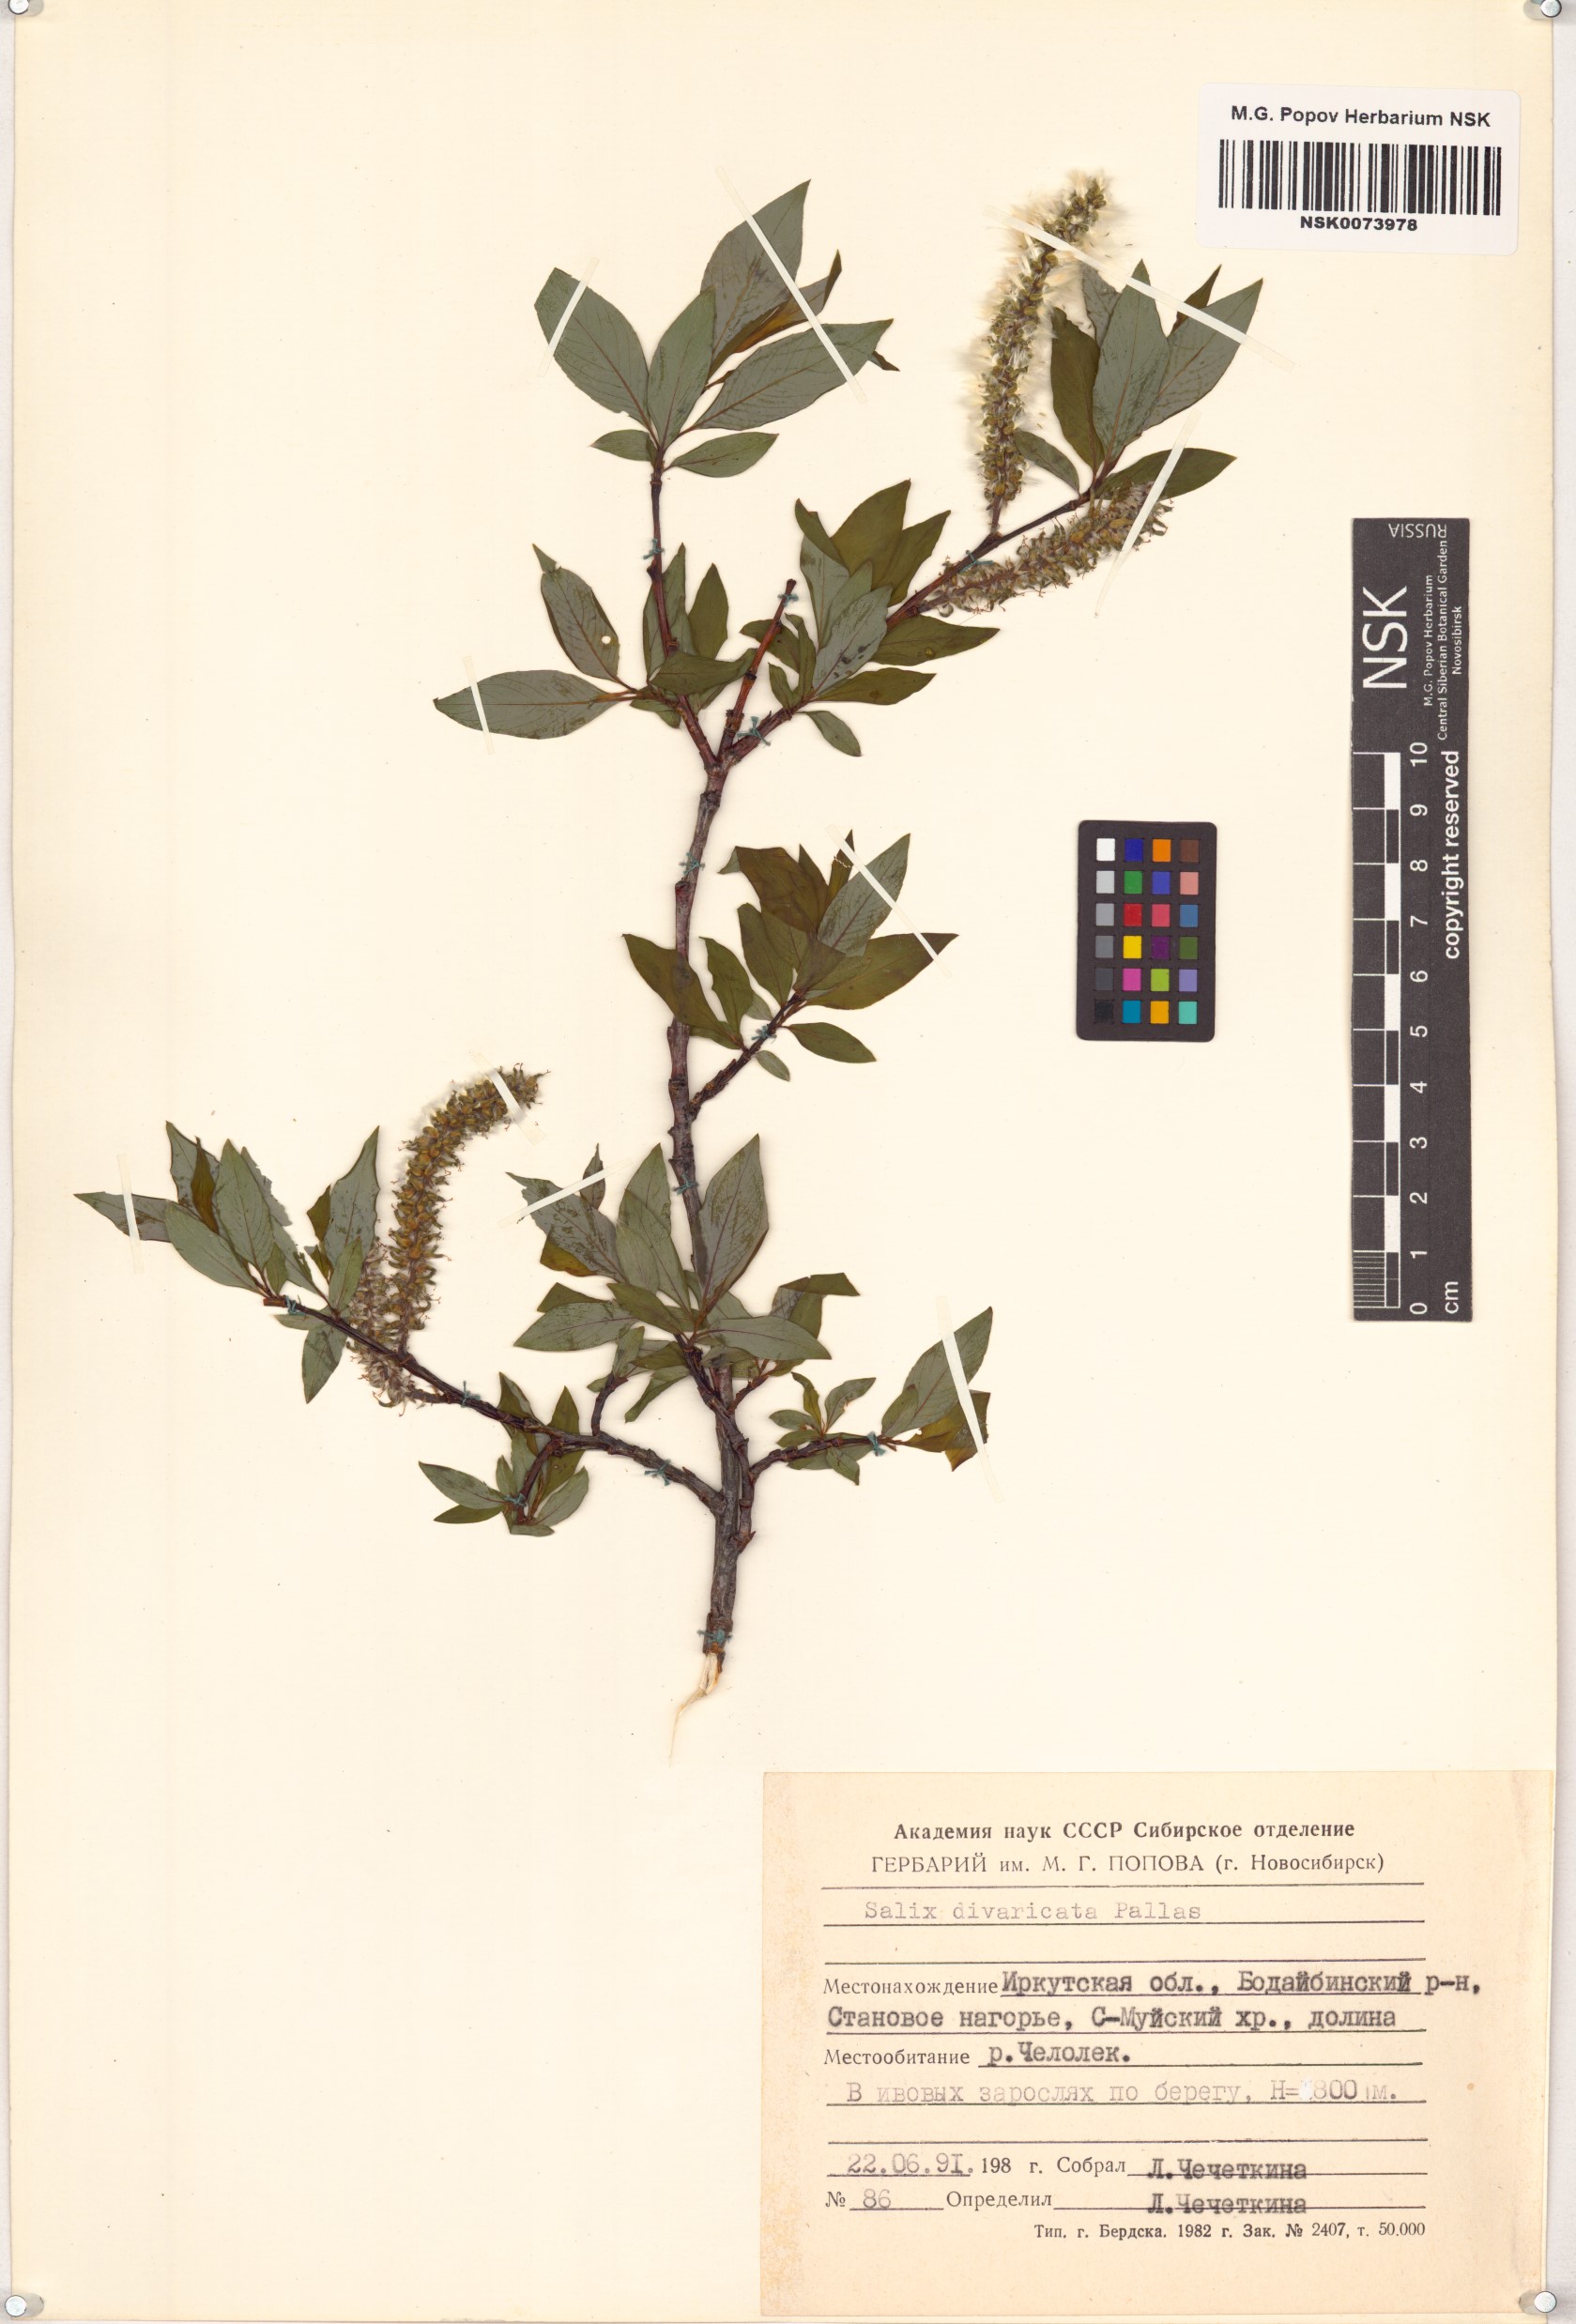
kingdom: Plantae
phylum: Tracheophyta
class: Magnoliopsida
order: Malpighiales
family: Salicaceae
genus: Salix
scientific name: Salix divaricata
